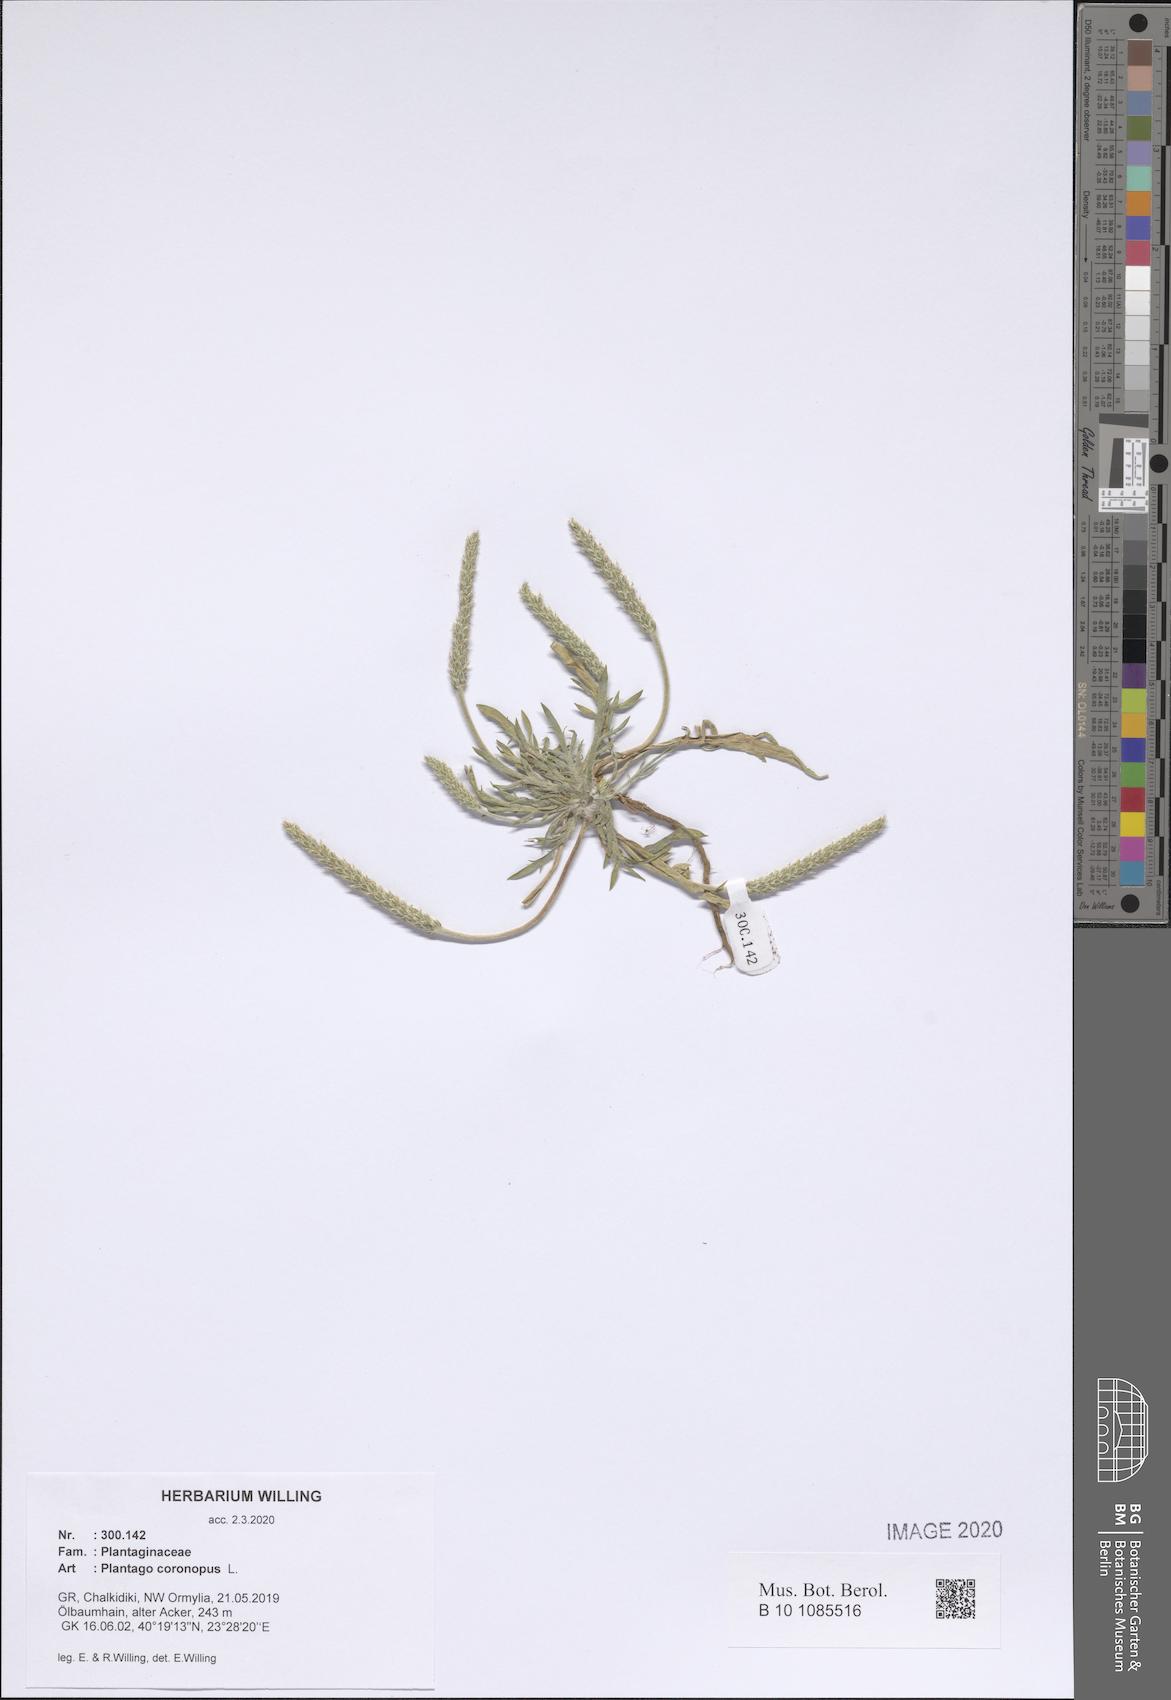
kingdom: Plantae
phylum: Tracheophyta
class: Magnoliopsida
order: Lamiales
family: Plantaginaceae
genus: Plantago
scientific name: Plantago coronopus
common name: Buck's-horn plantain
